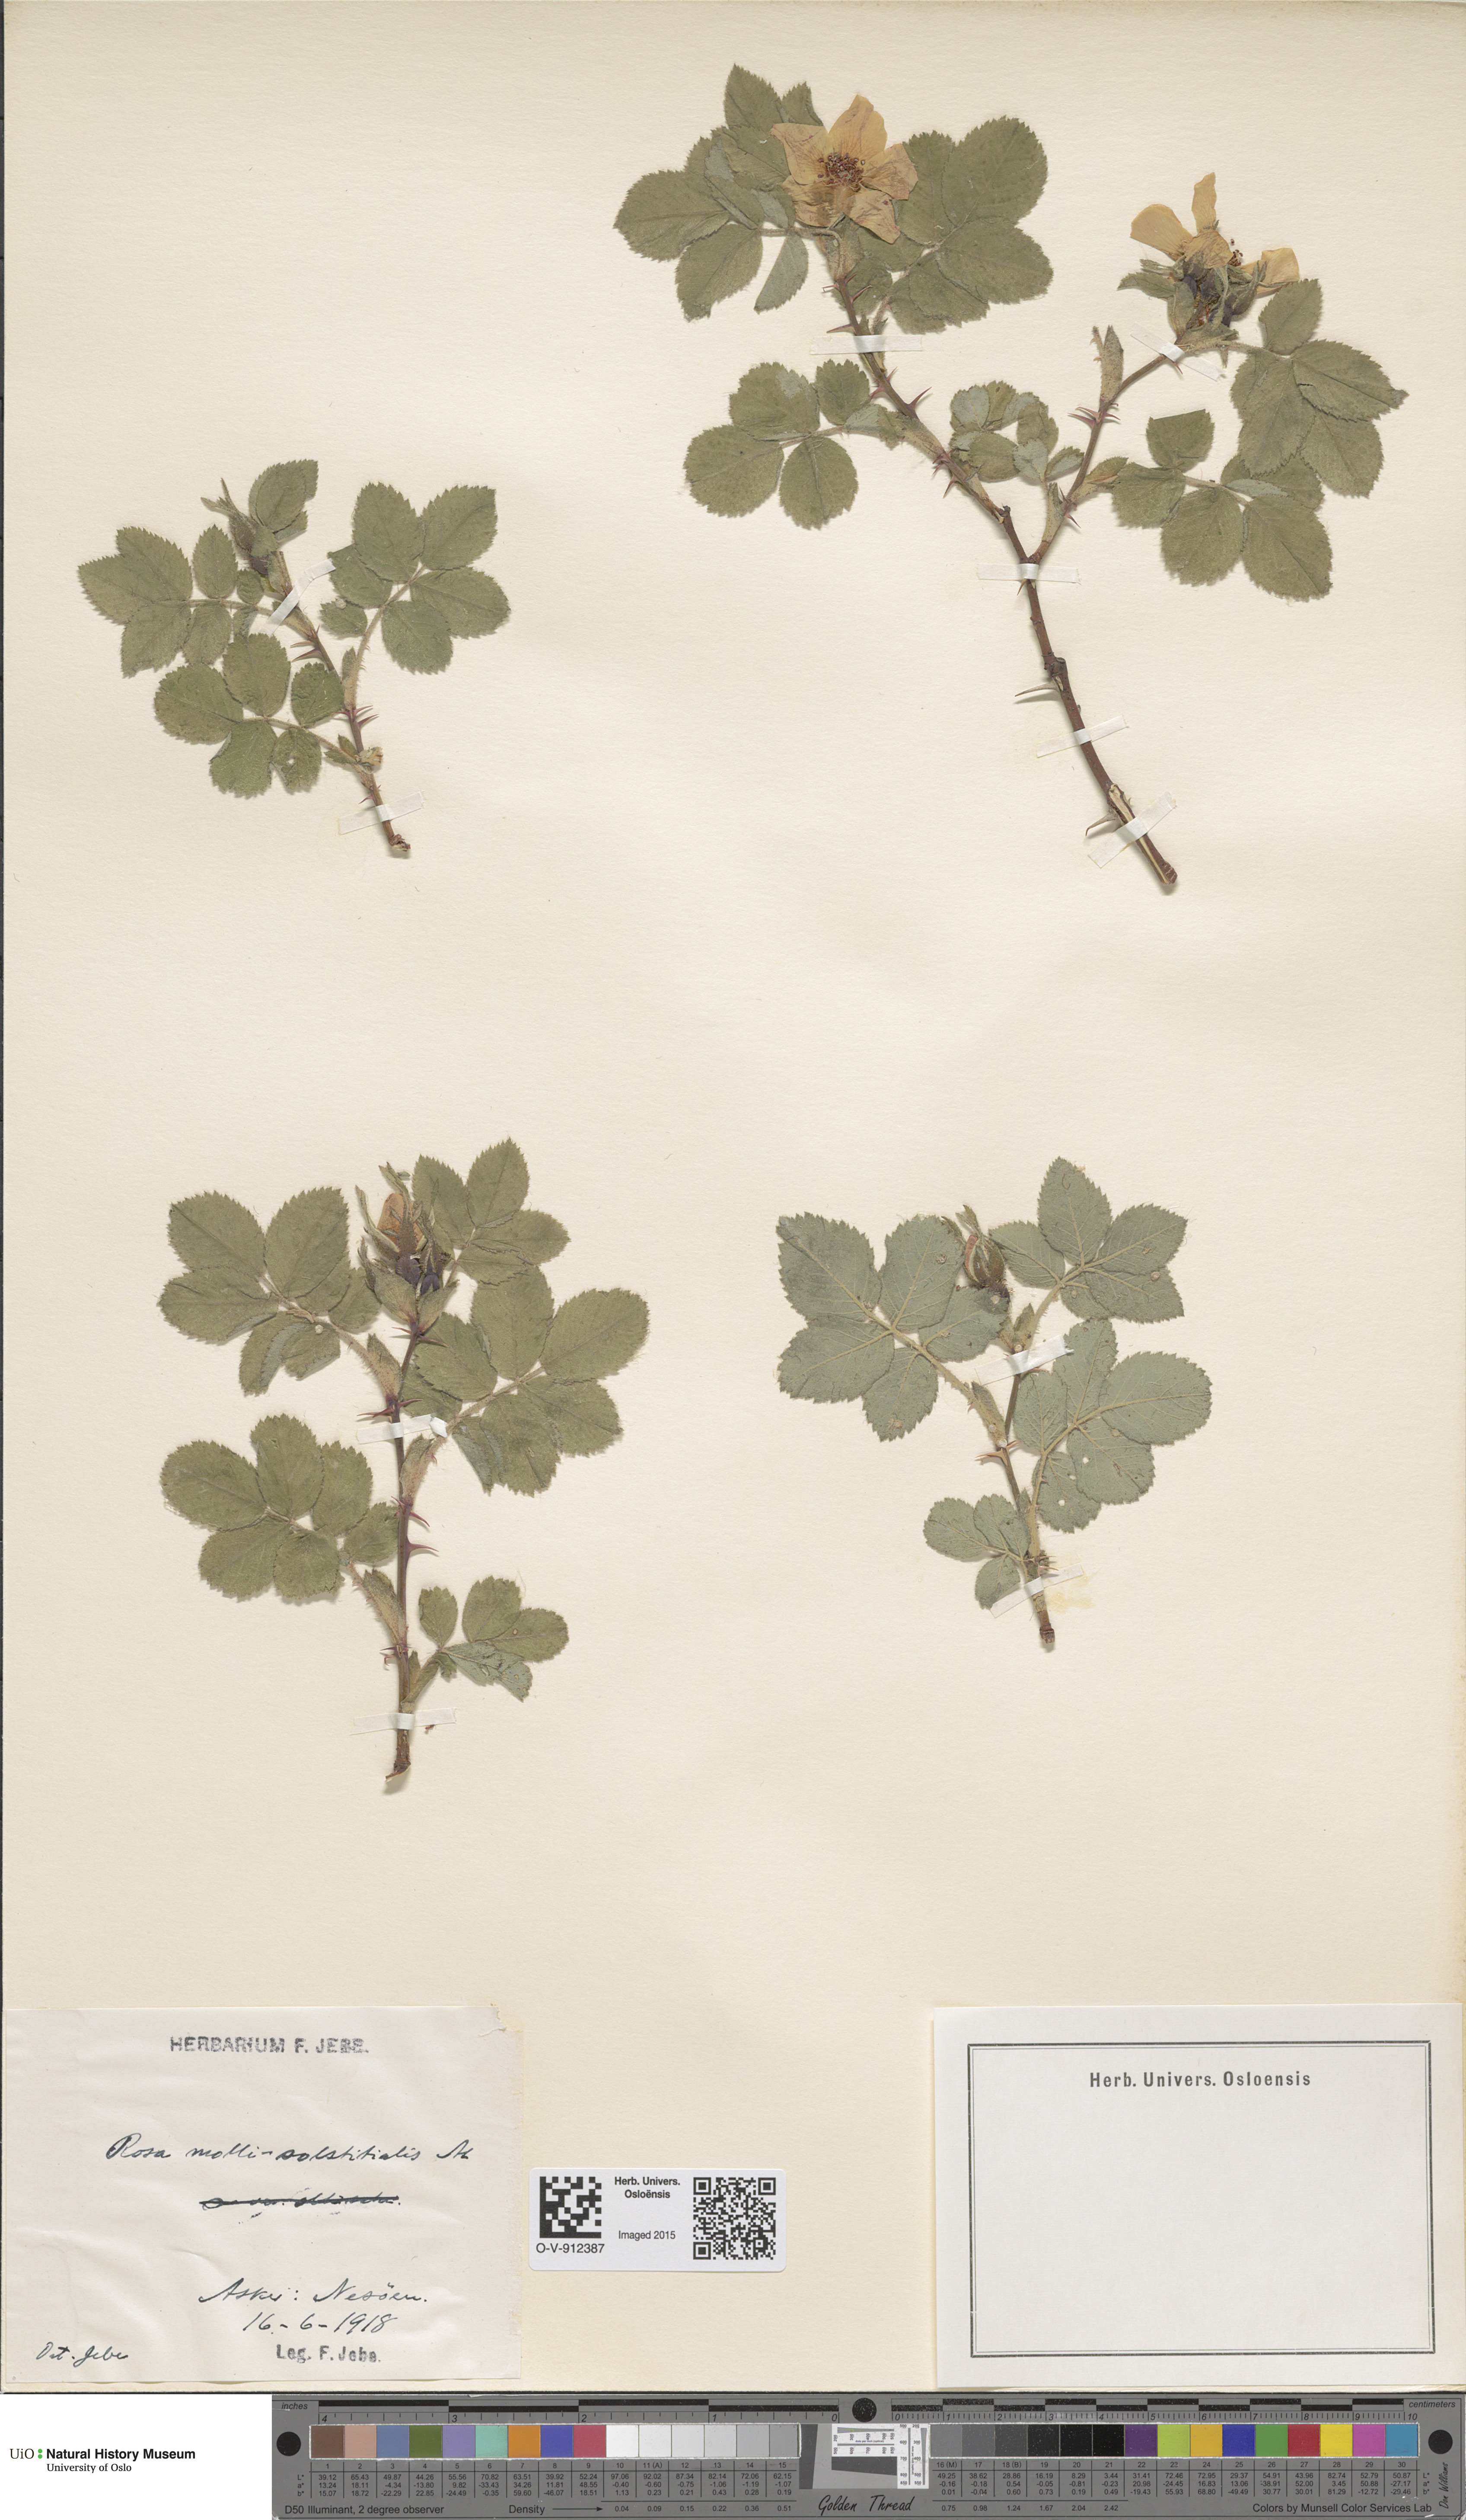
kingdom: Plantae
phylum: Tracheophyta
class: Magnoliopsida
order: Rosales
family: Rosaceae
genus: Rosa
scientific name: Rosa mollis
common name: Rose
